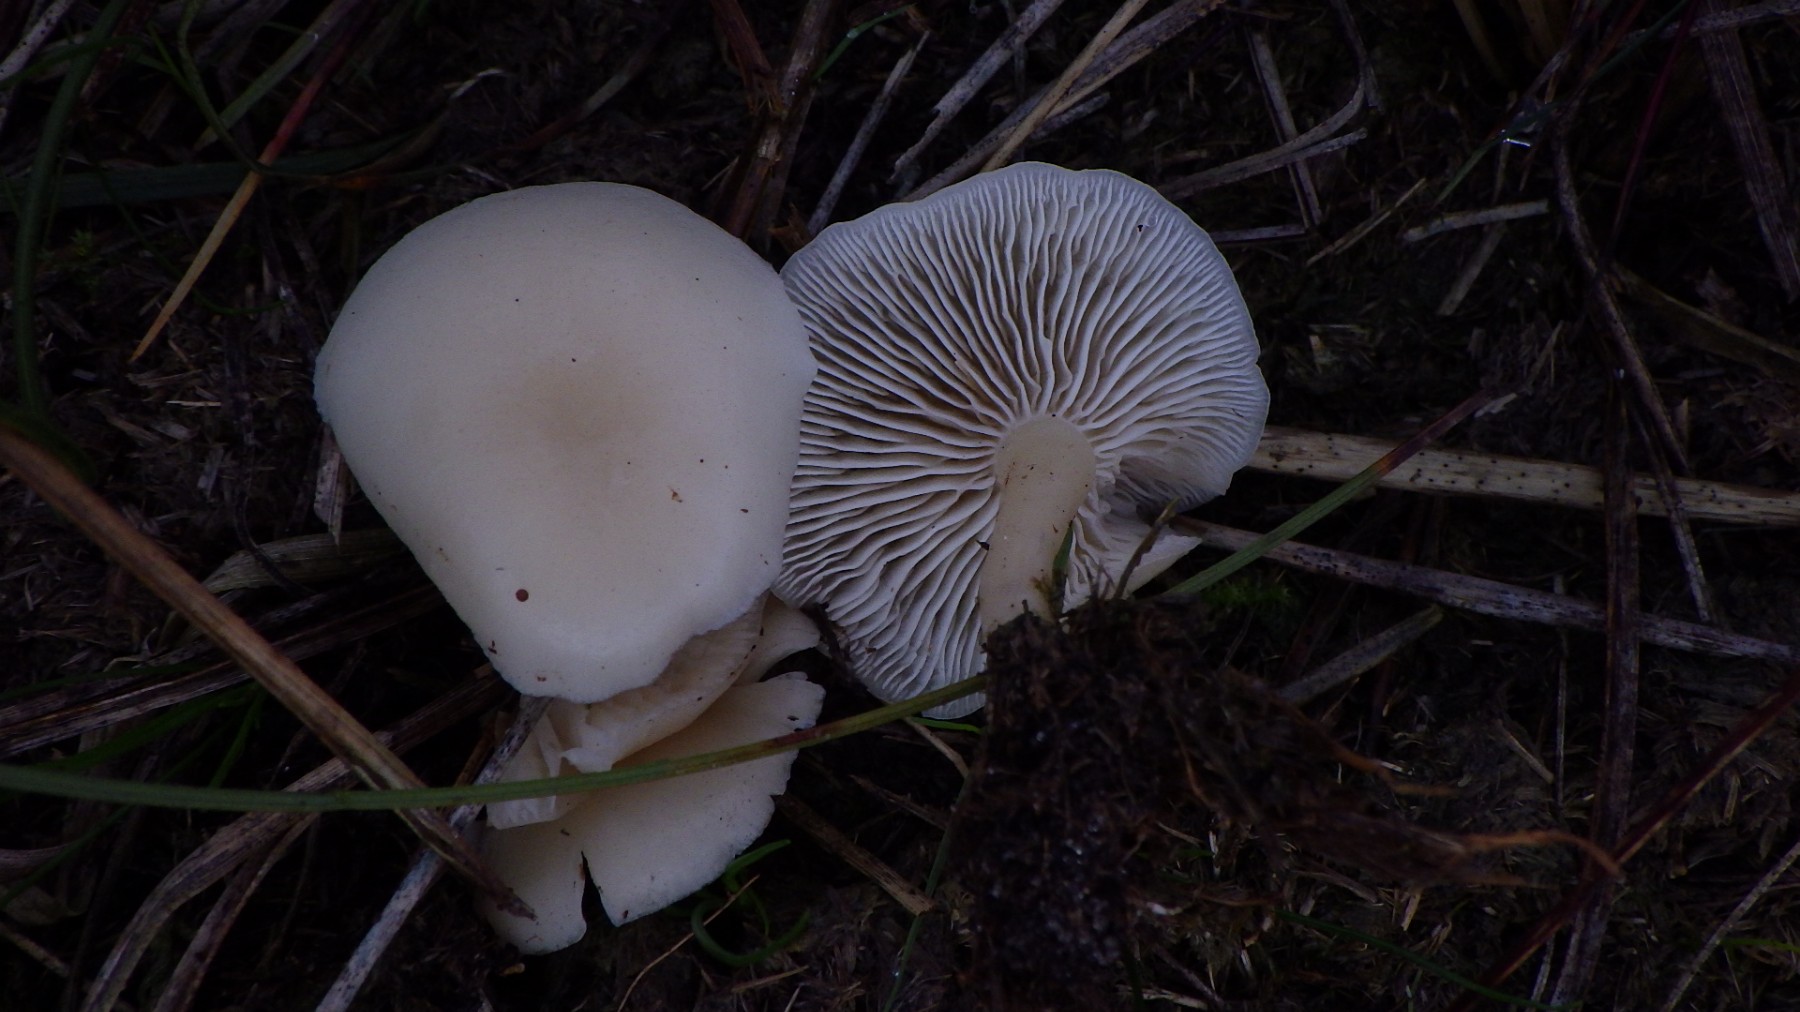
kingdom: Fungi
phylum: Basidiomycota
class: Agaricomycetes
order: Agaricales
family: Hygrophoraceae
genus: Cuphophyllus
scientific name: Cuphophyllus virgineus
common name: snehvid vokshat
